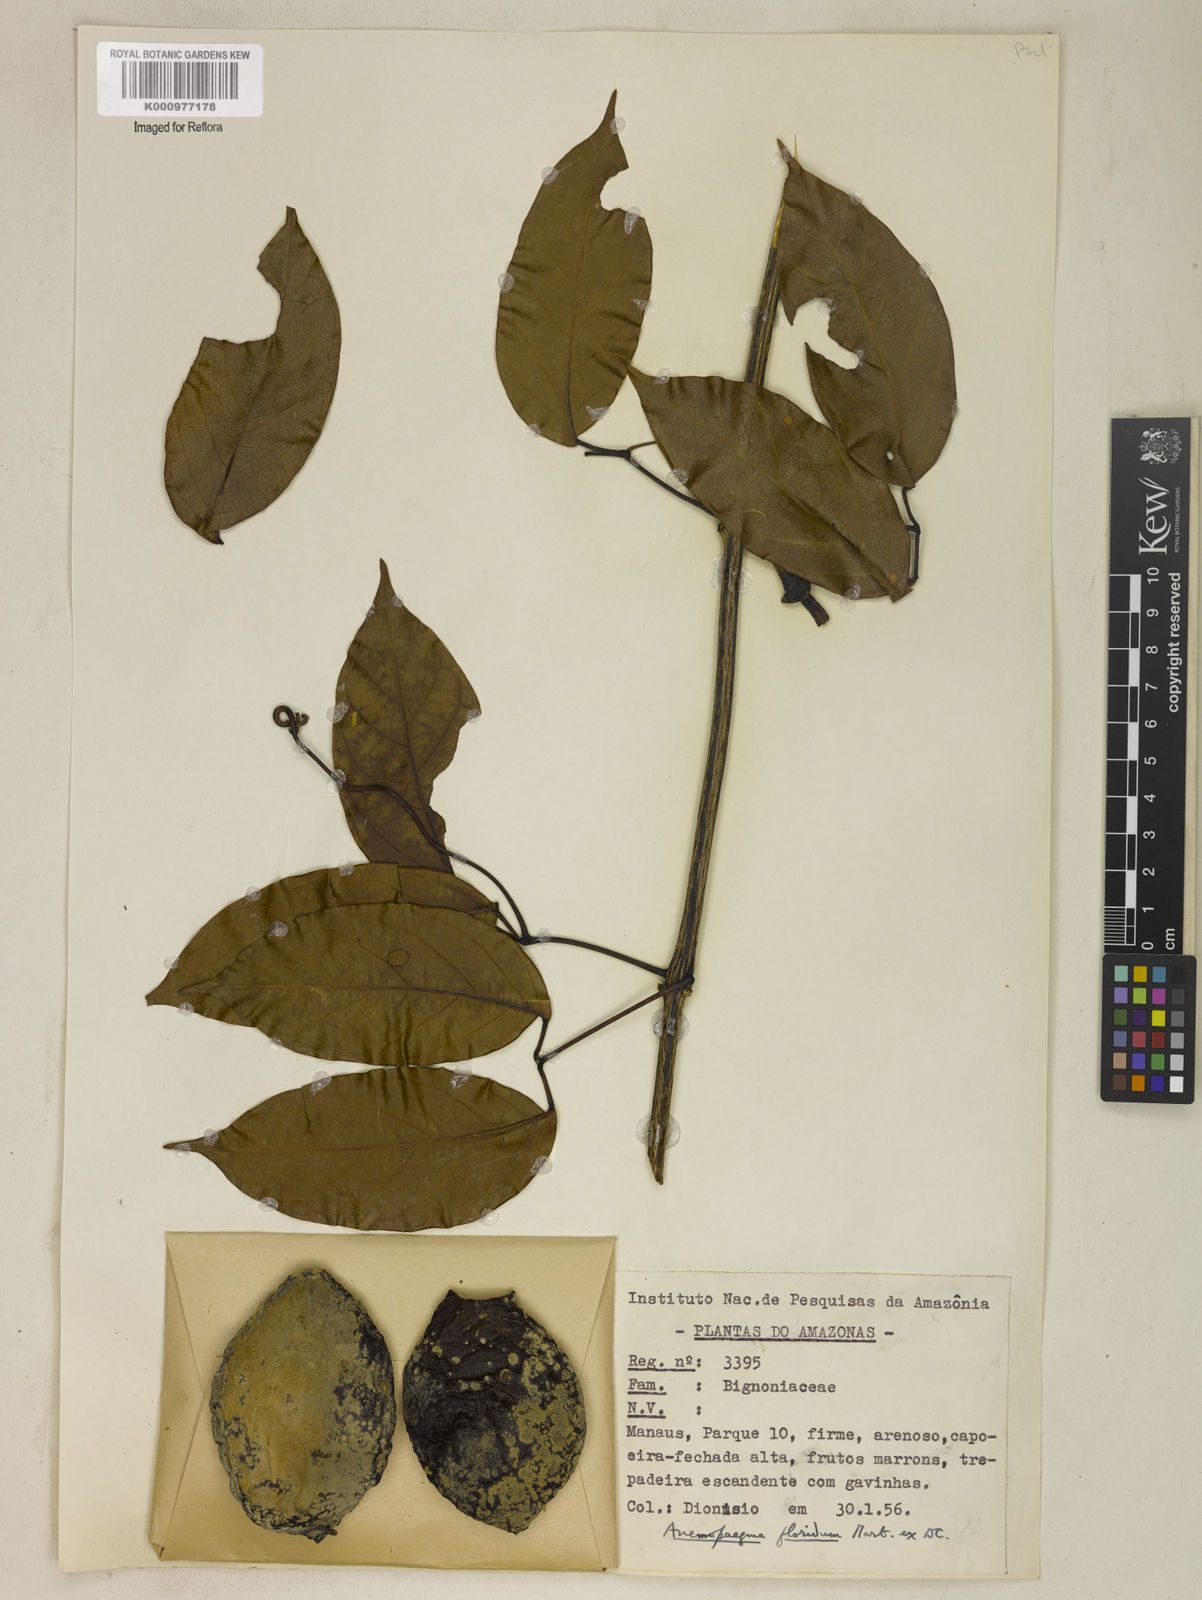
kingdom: Plantae
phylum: Tracheophyta
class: Magnoliopsida
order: Lamiales
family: Bignoniaceae
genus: Anemopaegma
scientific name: Anemopaegma floridum
